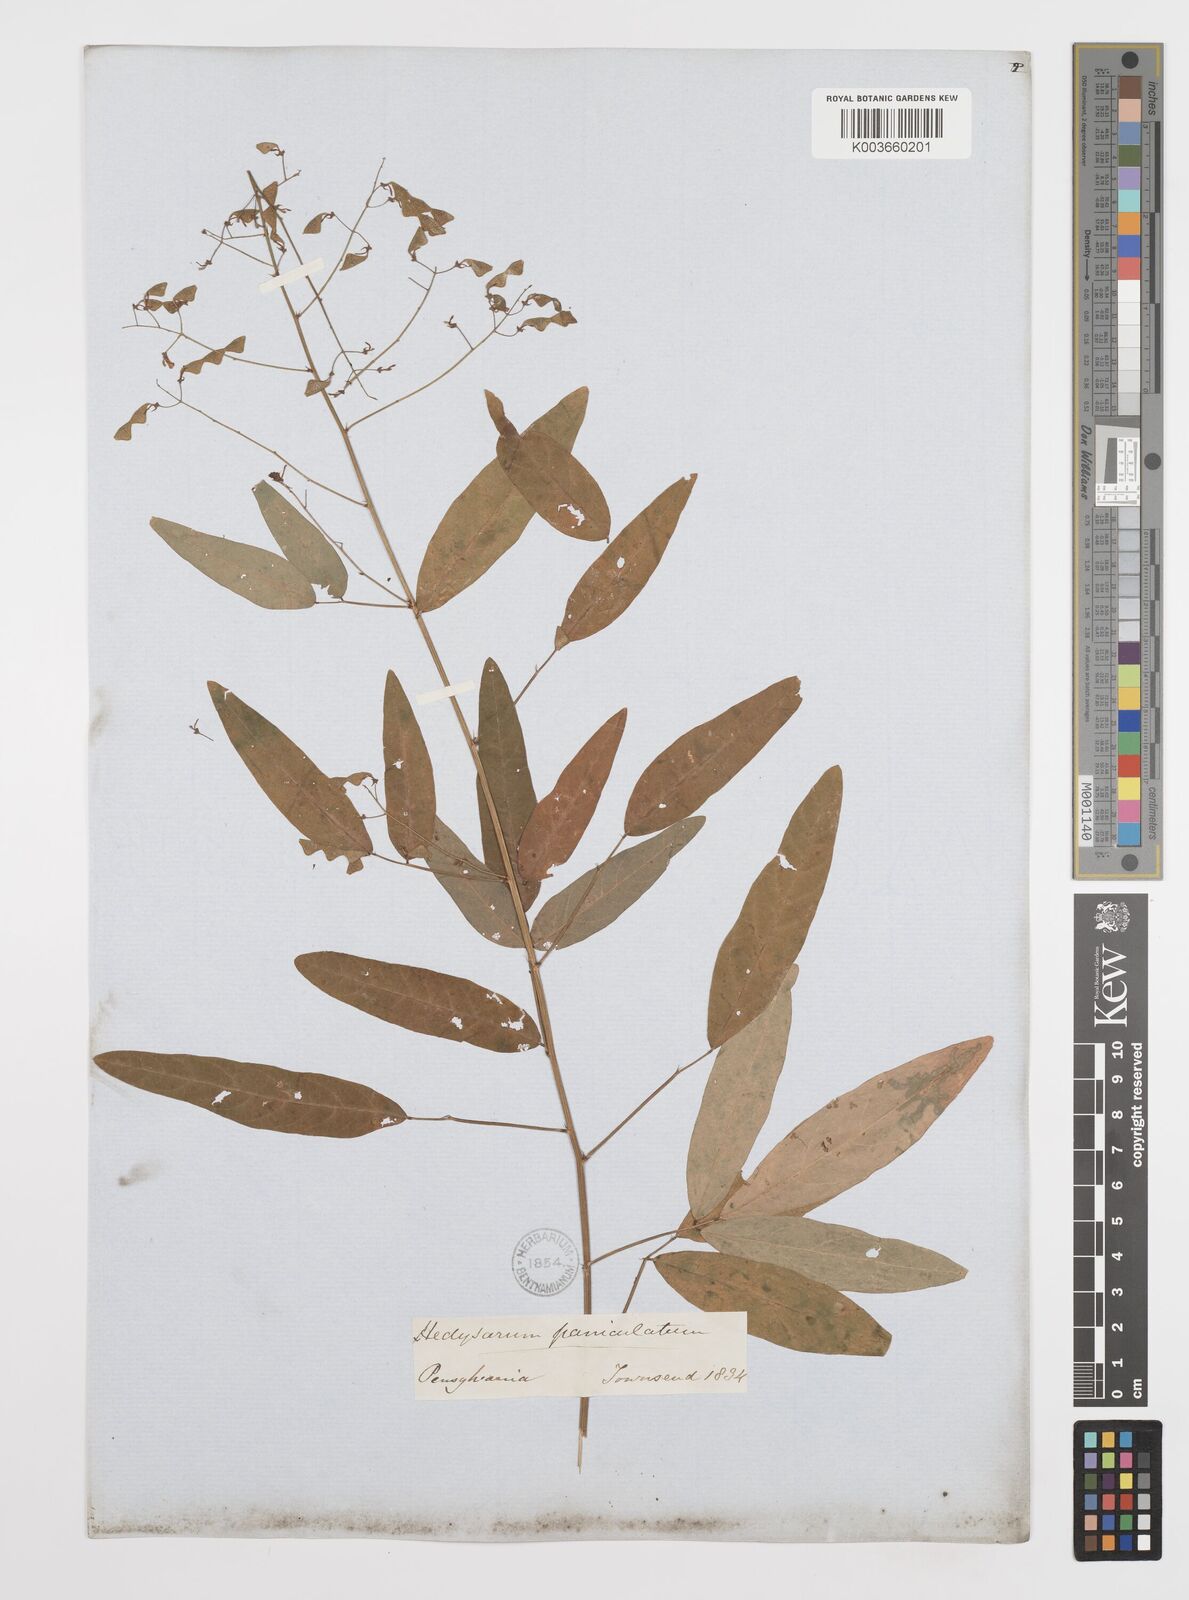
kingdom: Plantae
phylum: Tracheophyta
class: Magnoliopsida
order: Fabales
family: Fabaceae
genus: Desmodium
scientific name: Desmodium paniculatum
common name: Panicled tick-clover
